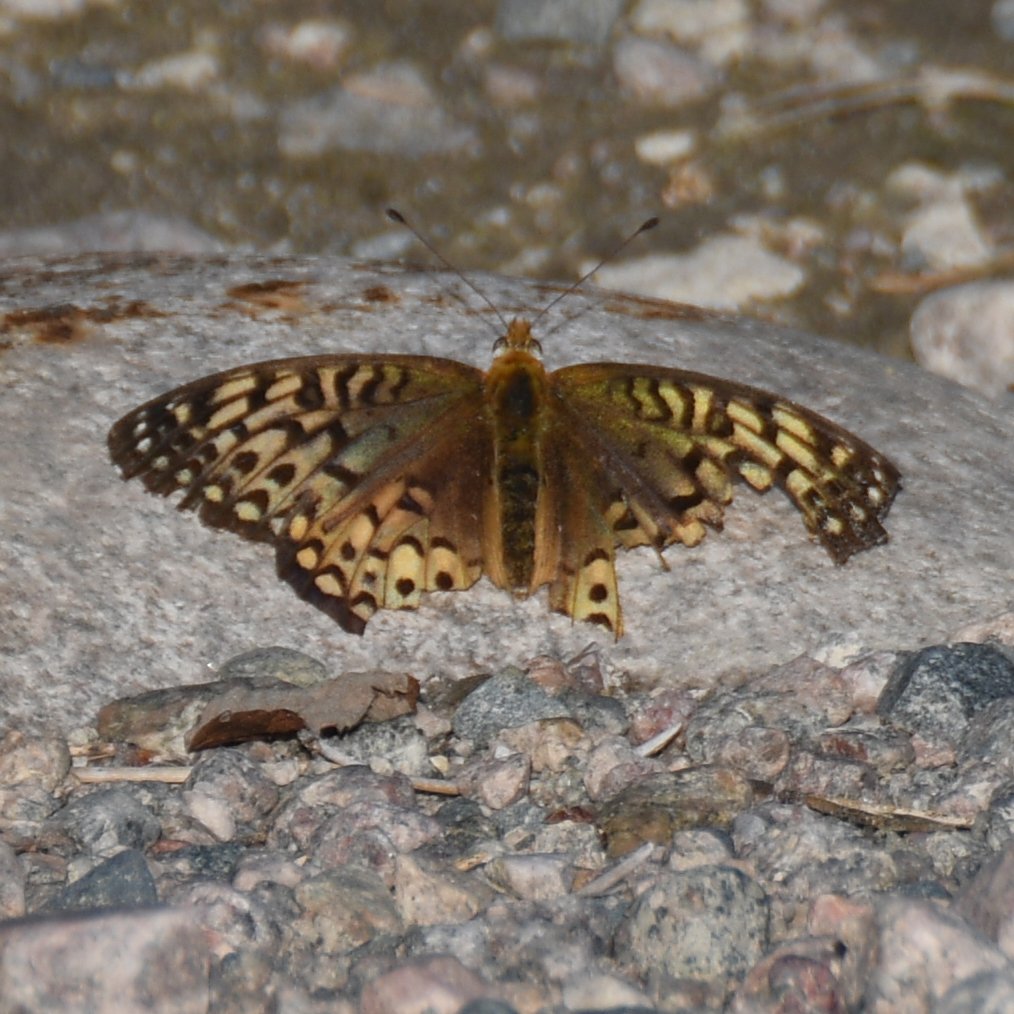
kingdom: Animalia
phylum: Arthropoda
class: Insecta
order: Lepidoptera
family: Nymphalidae
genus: Speyeria
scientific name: Speyeria atlantis
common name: Atlantis Fritillary
